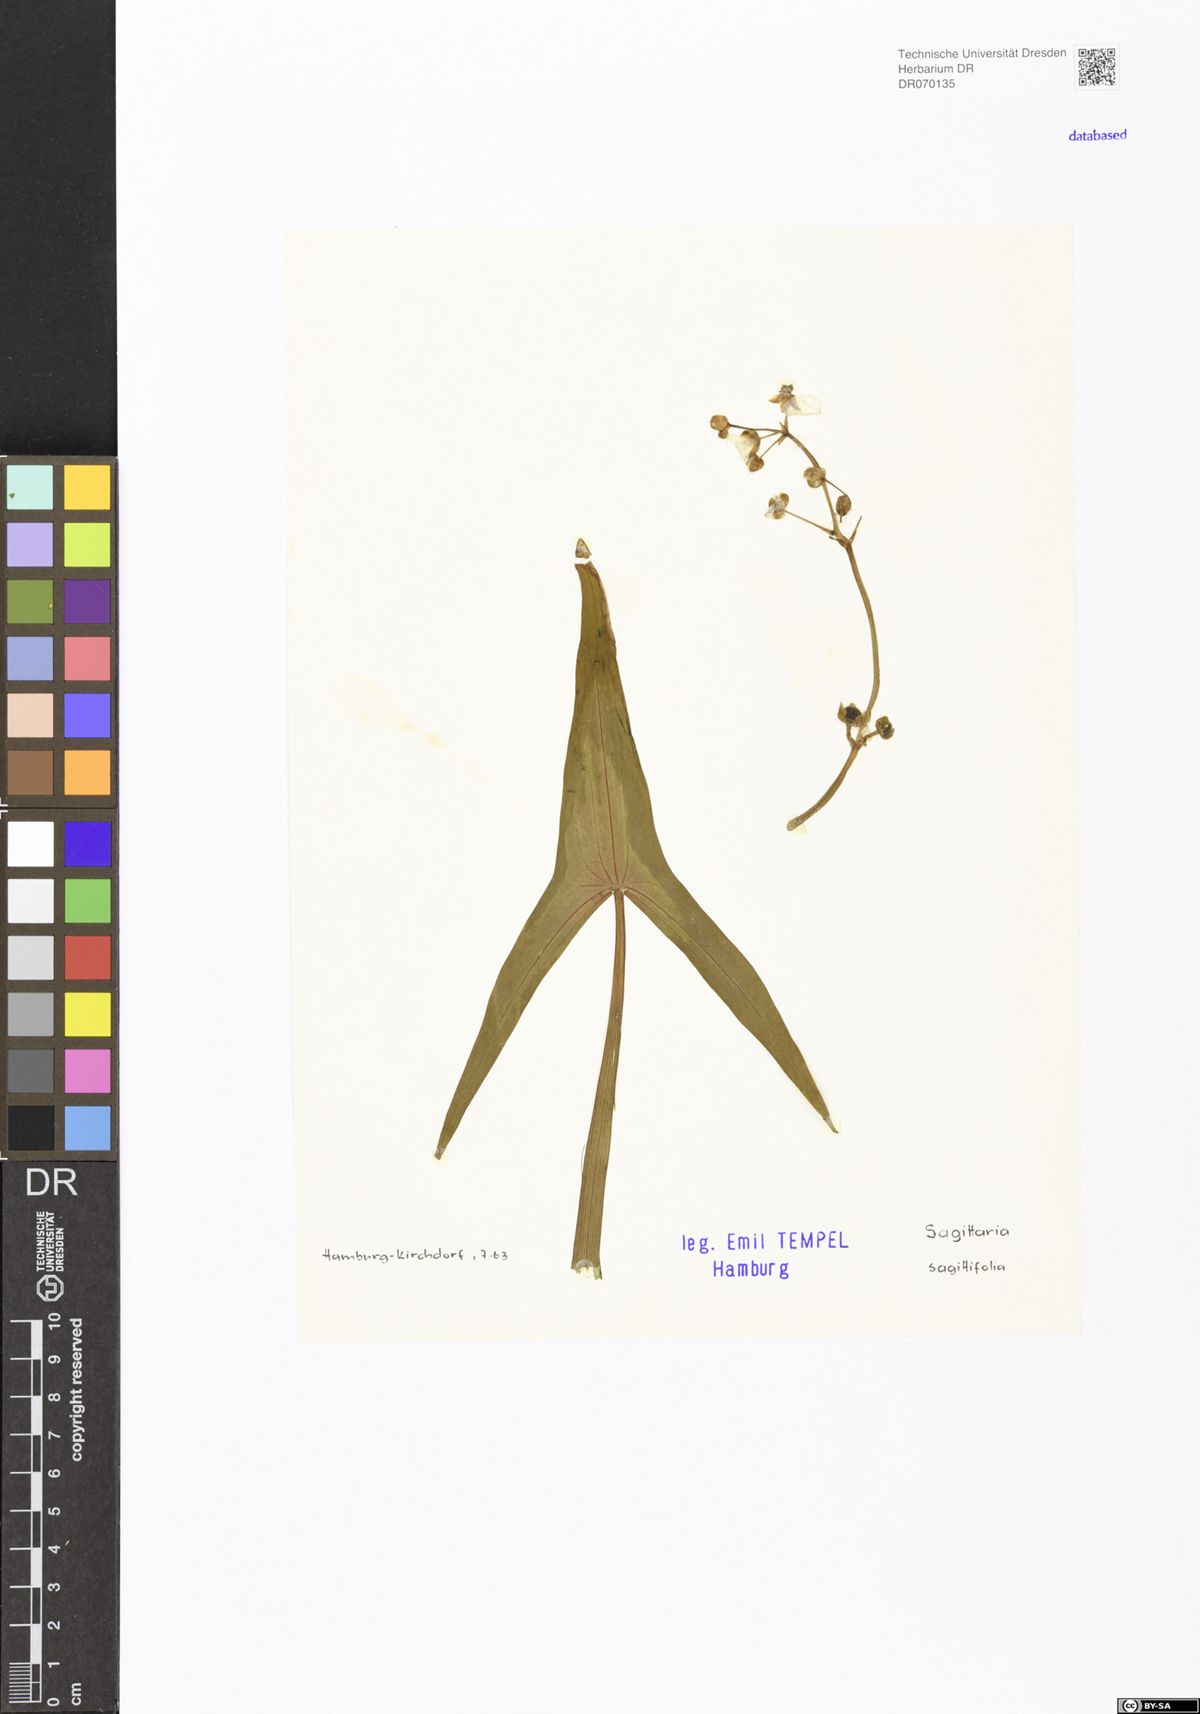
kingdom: Plantae
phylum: Tracheophyta
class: Liliopsida
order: Alismatales
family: Alismataceae
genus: Sagittaria
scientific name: Sagittaria sagittifolia
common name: Arrowhead
